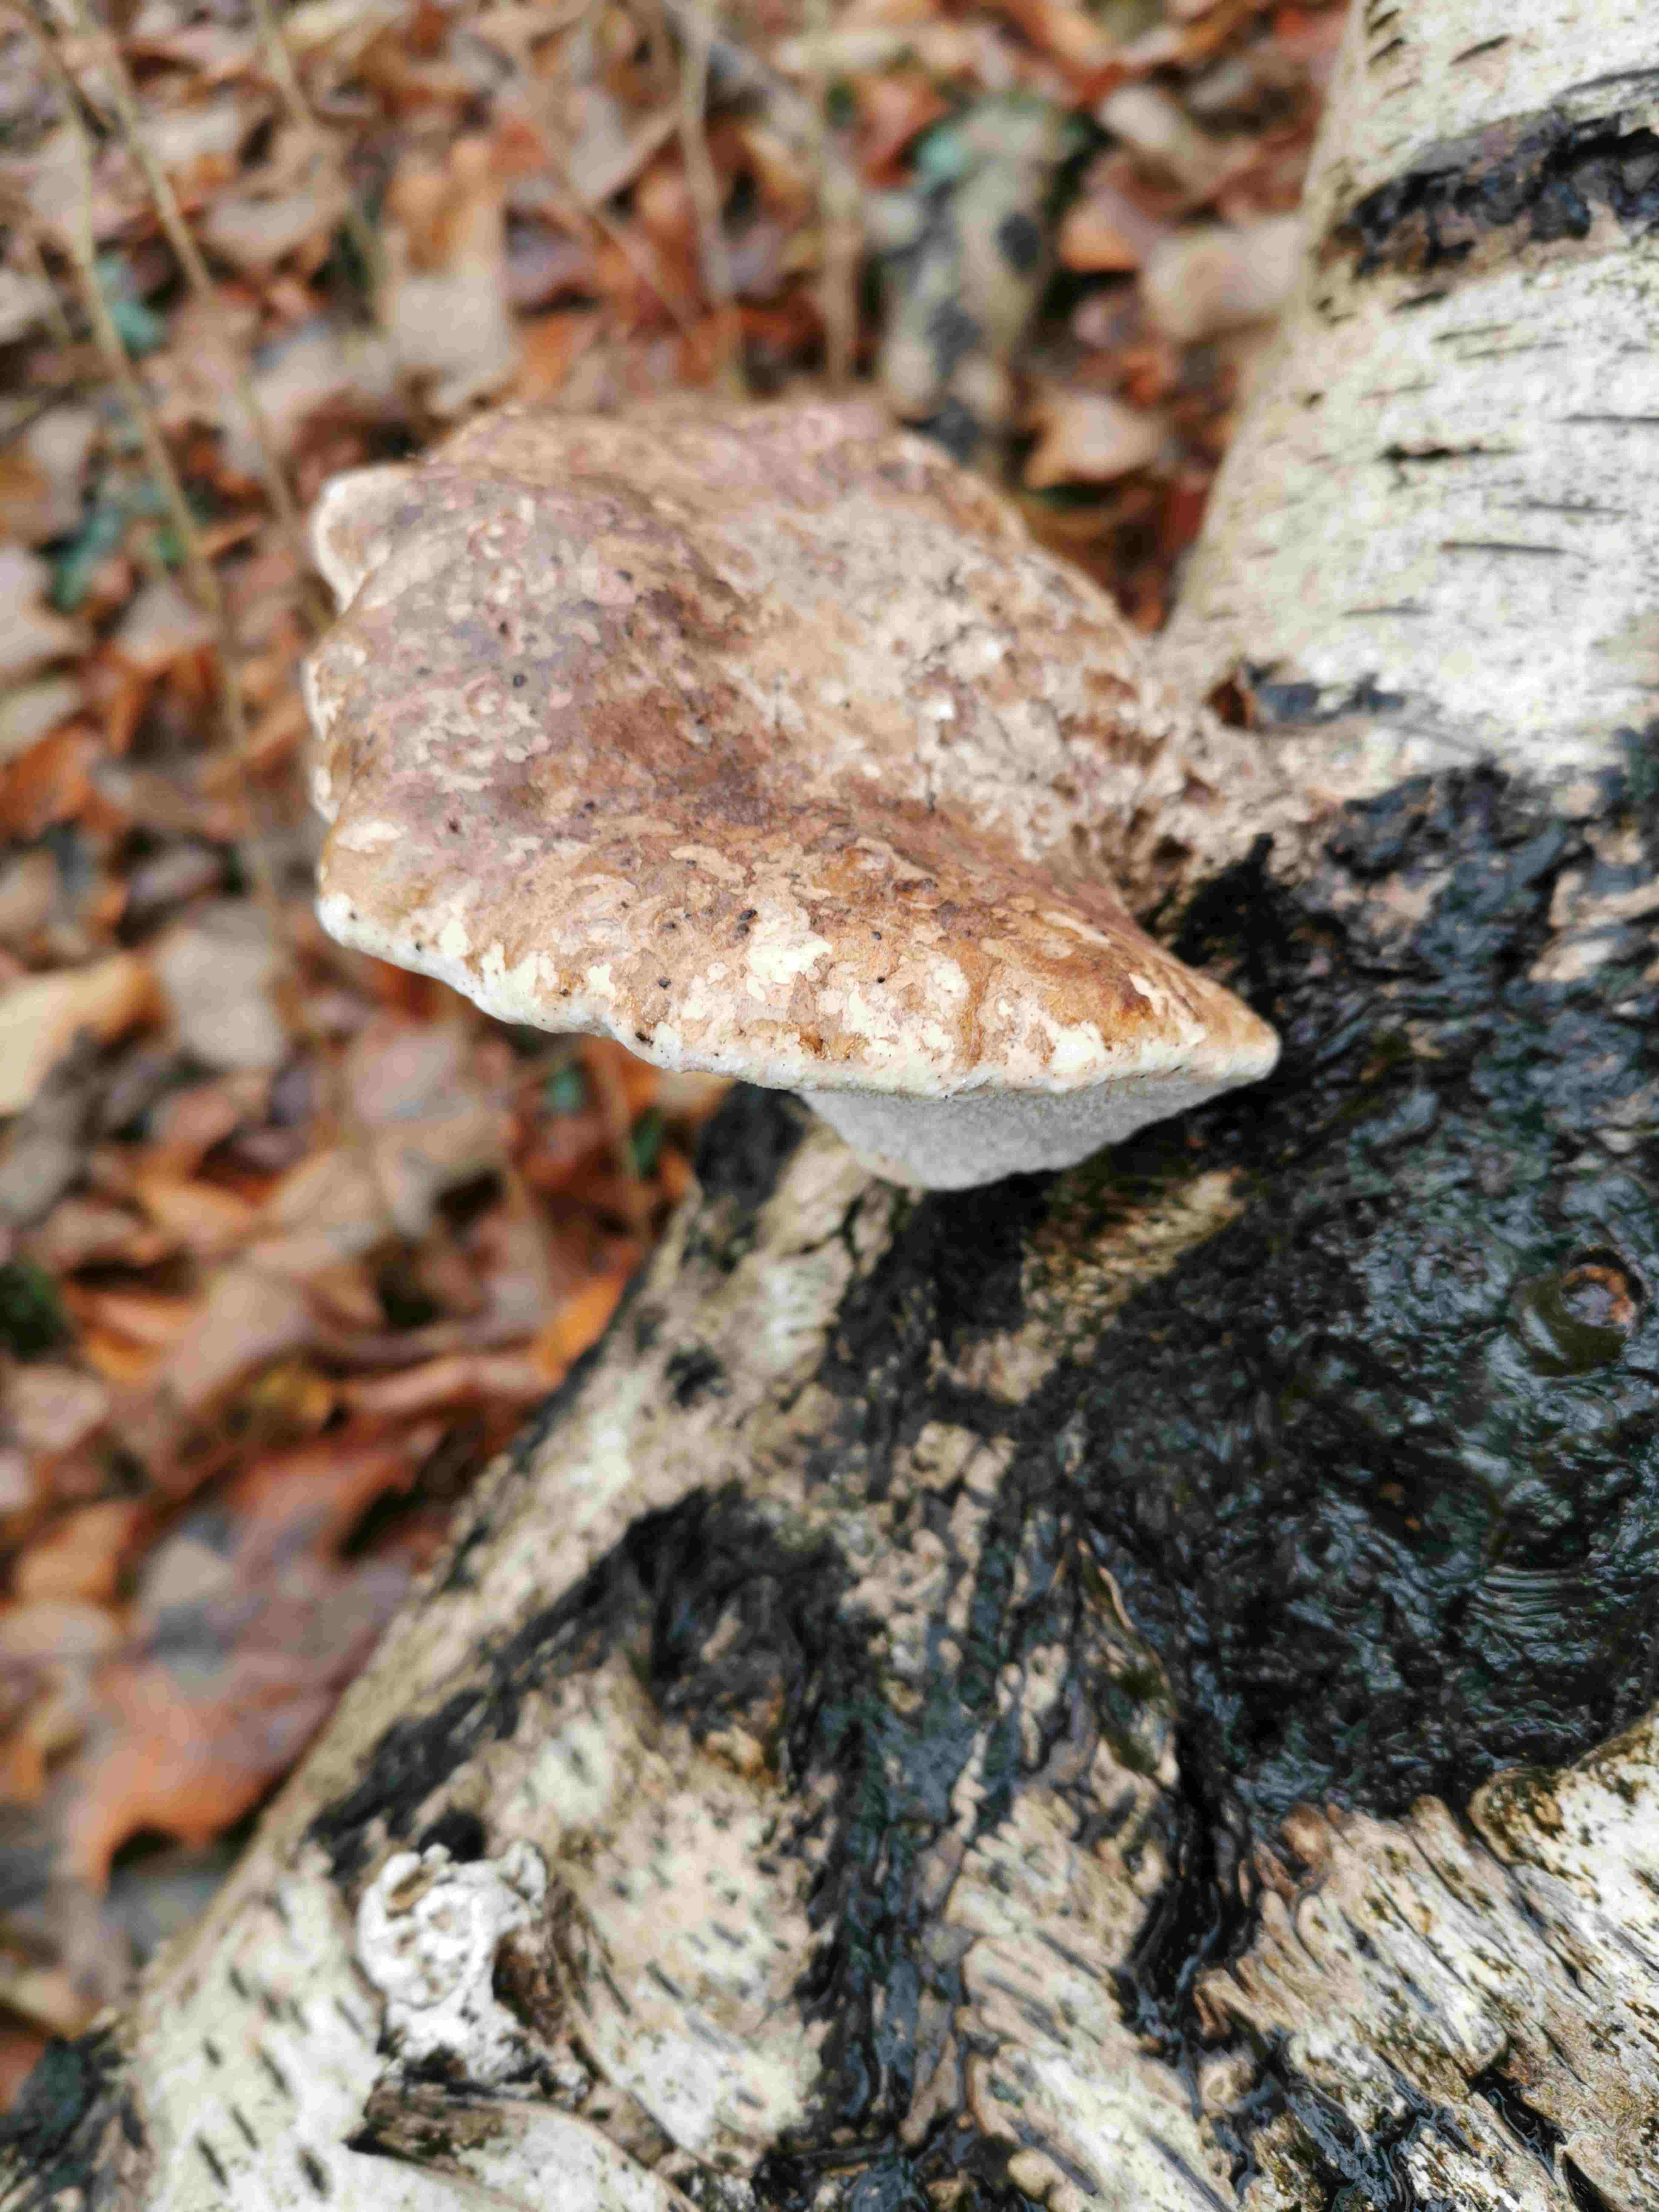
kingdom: Fungi
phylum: Basidiomycota
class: Agaricomycetes
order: Polyporales
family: Fomitopsidaceae
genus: Fomitopsis
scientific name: Fomitopsis betulina
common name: birkeporesvamp
